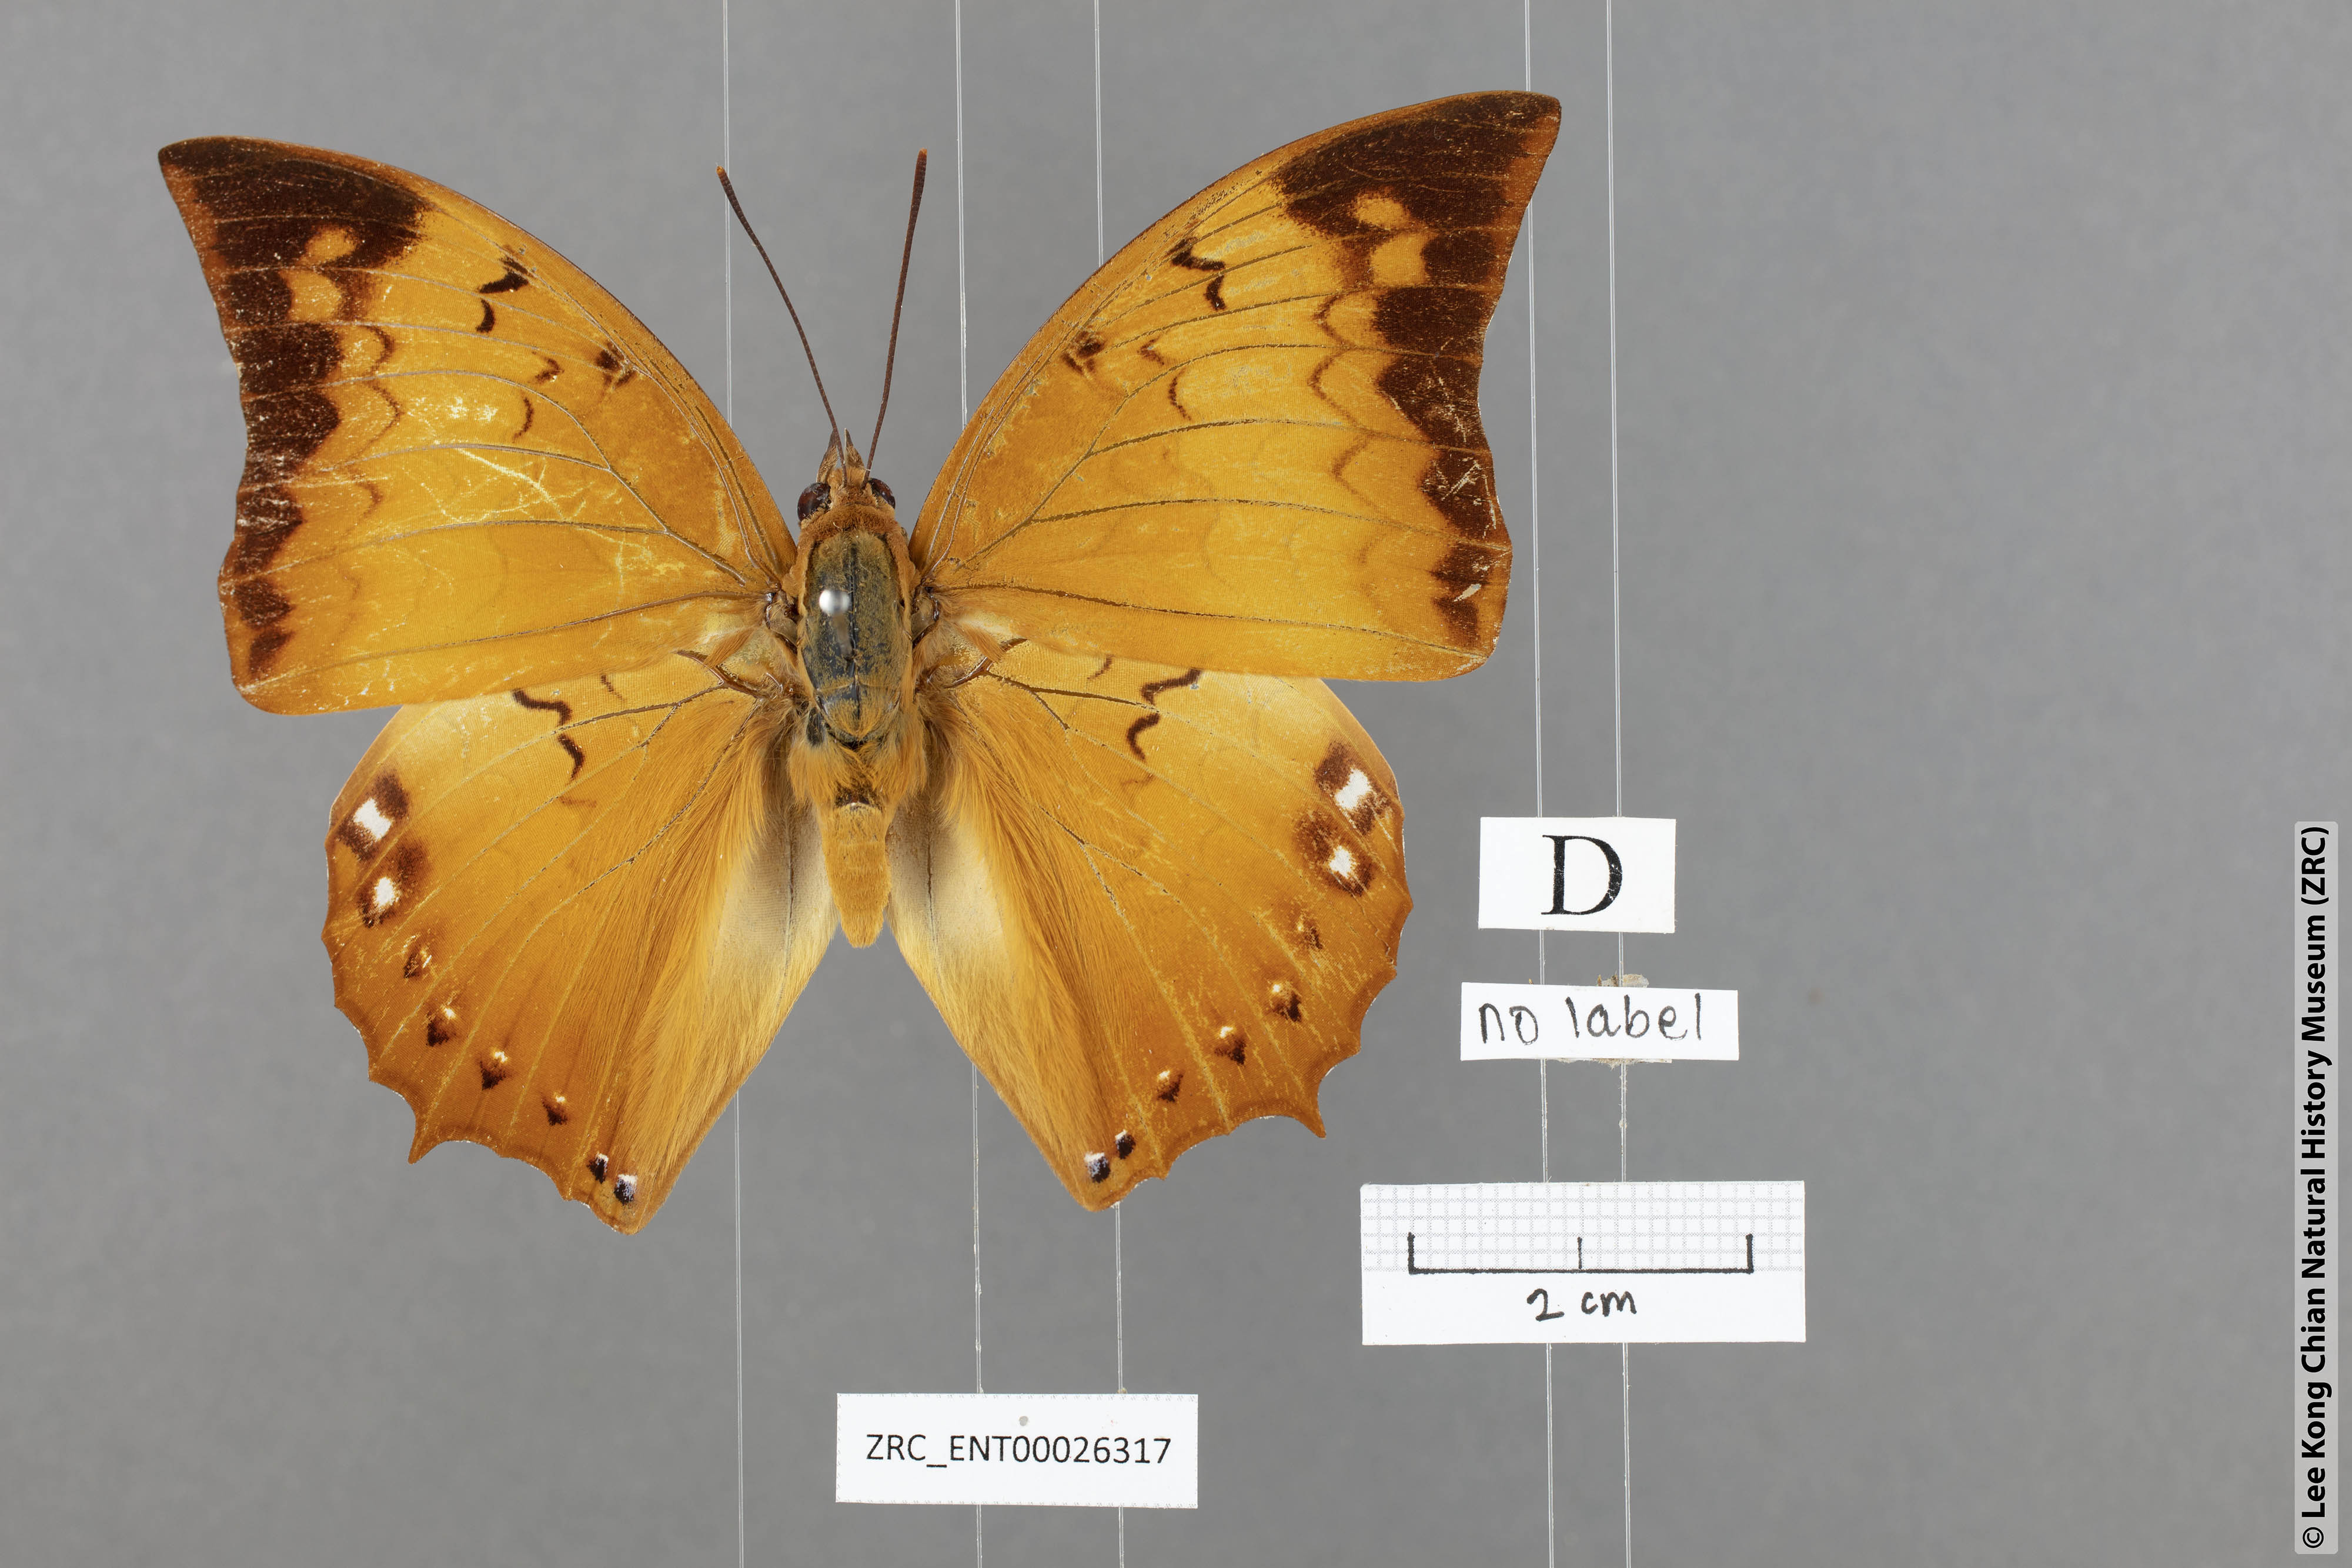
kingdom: Animalia
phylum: Arthropoda
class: Insecta
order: Lepidoptera
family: Nymphalidae
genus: Charaxes
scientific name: Charaxes harmodius
